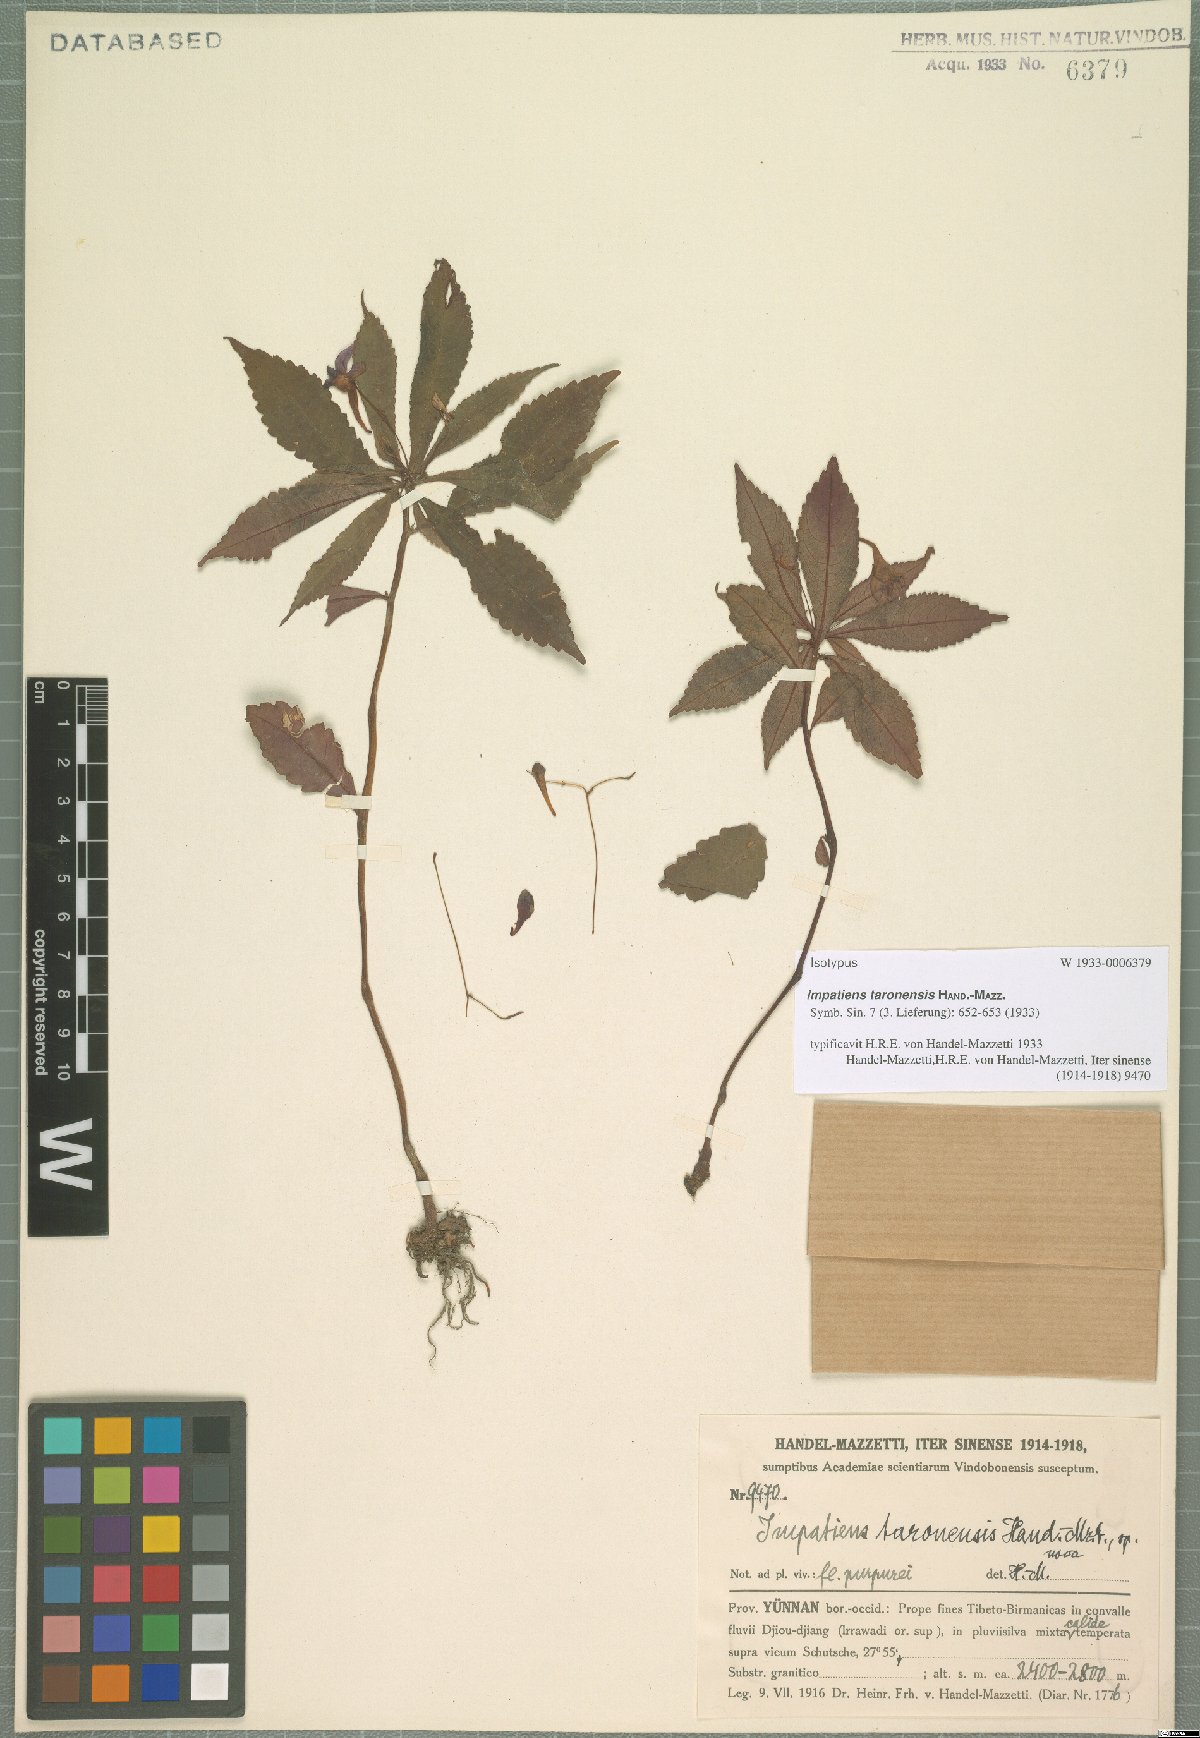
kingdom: Plantae
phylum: Tracheophyta
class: Magnoliopsida
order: Ericales
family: Balsaminaceae
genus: Impatiens
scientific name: Impatiens prainii
